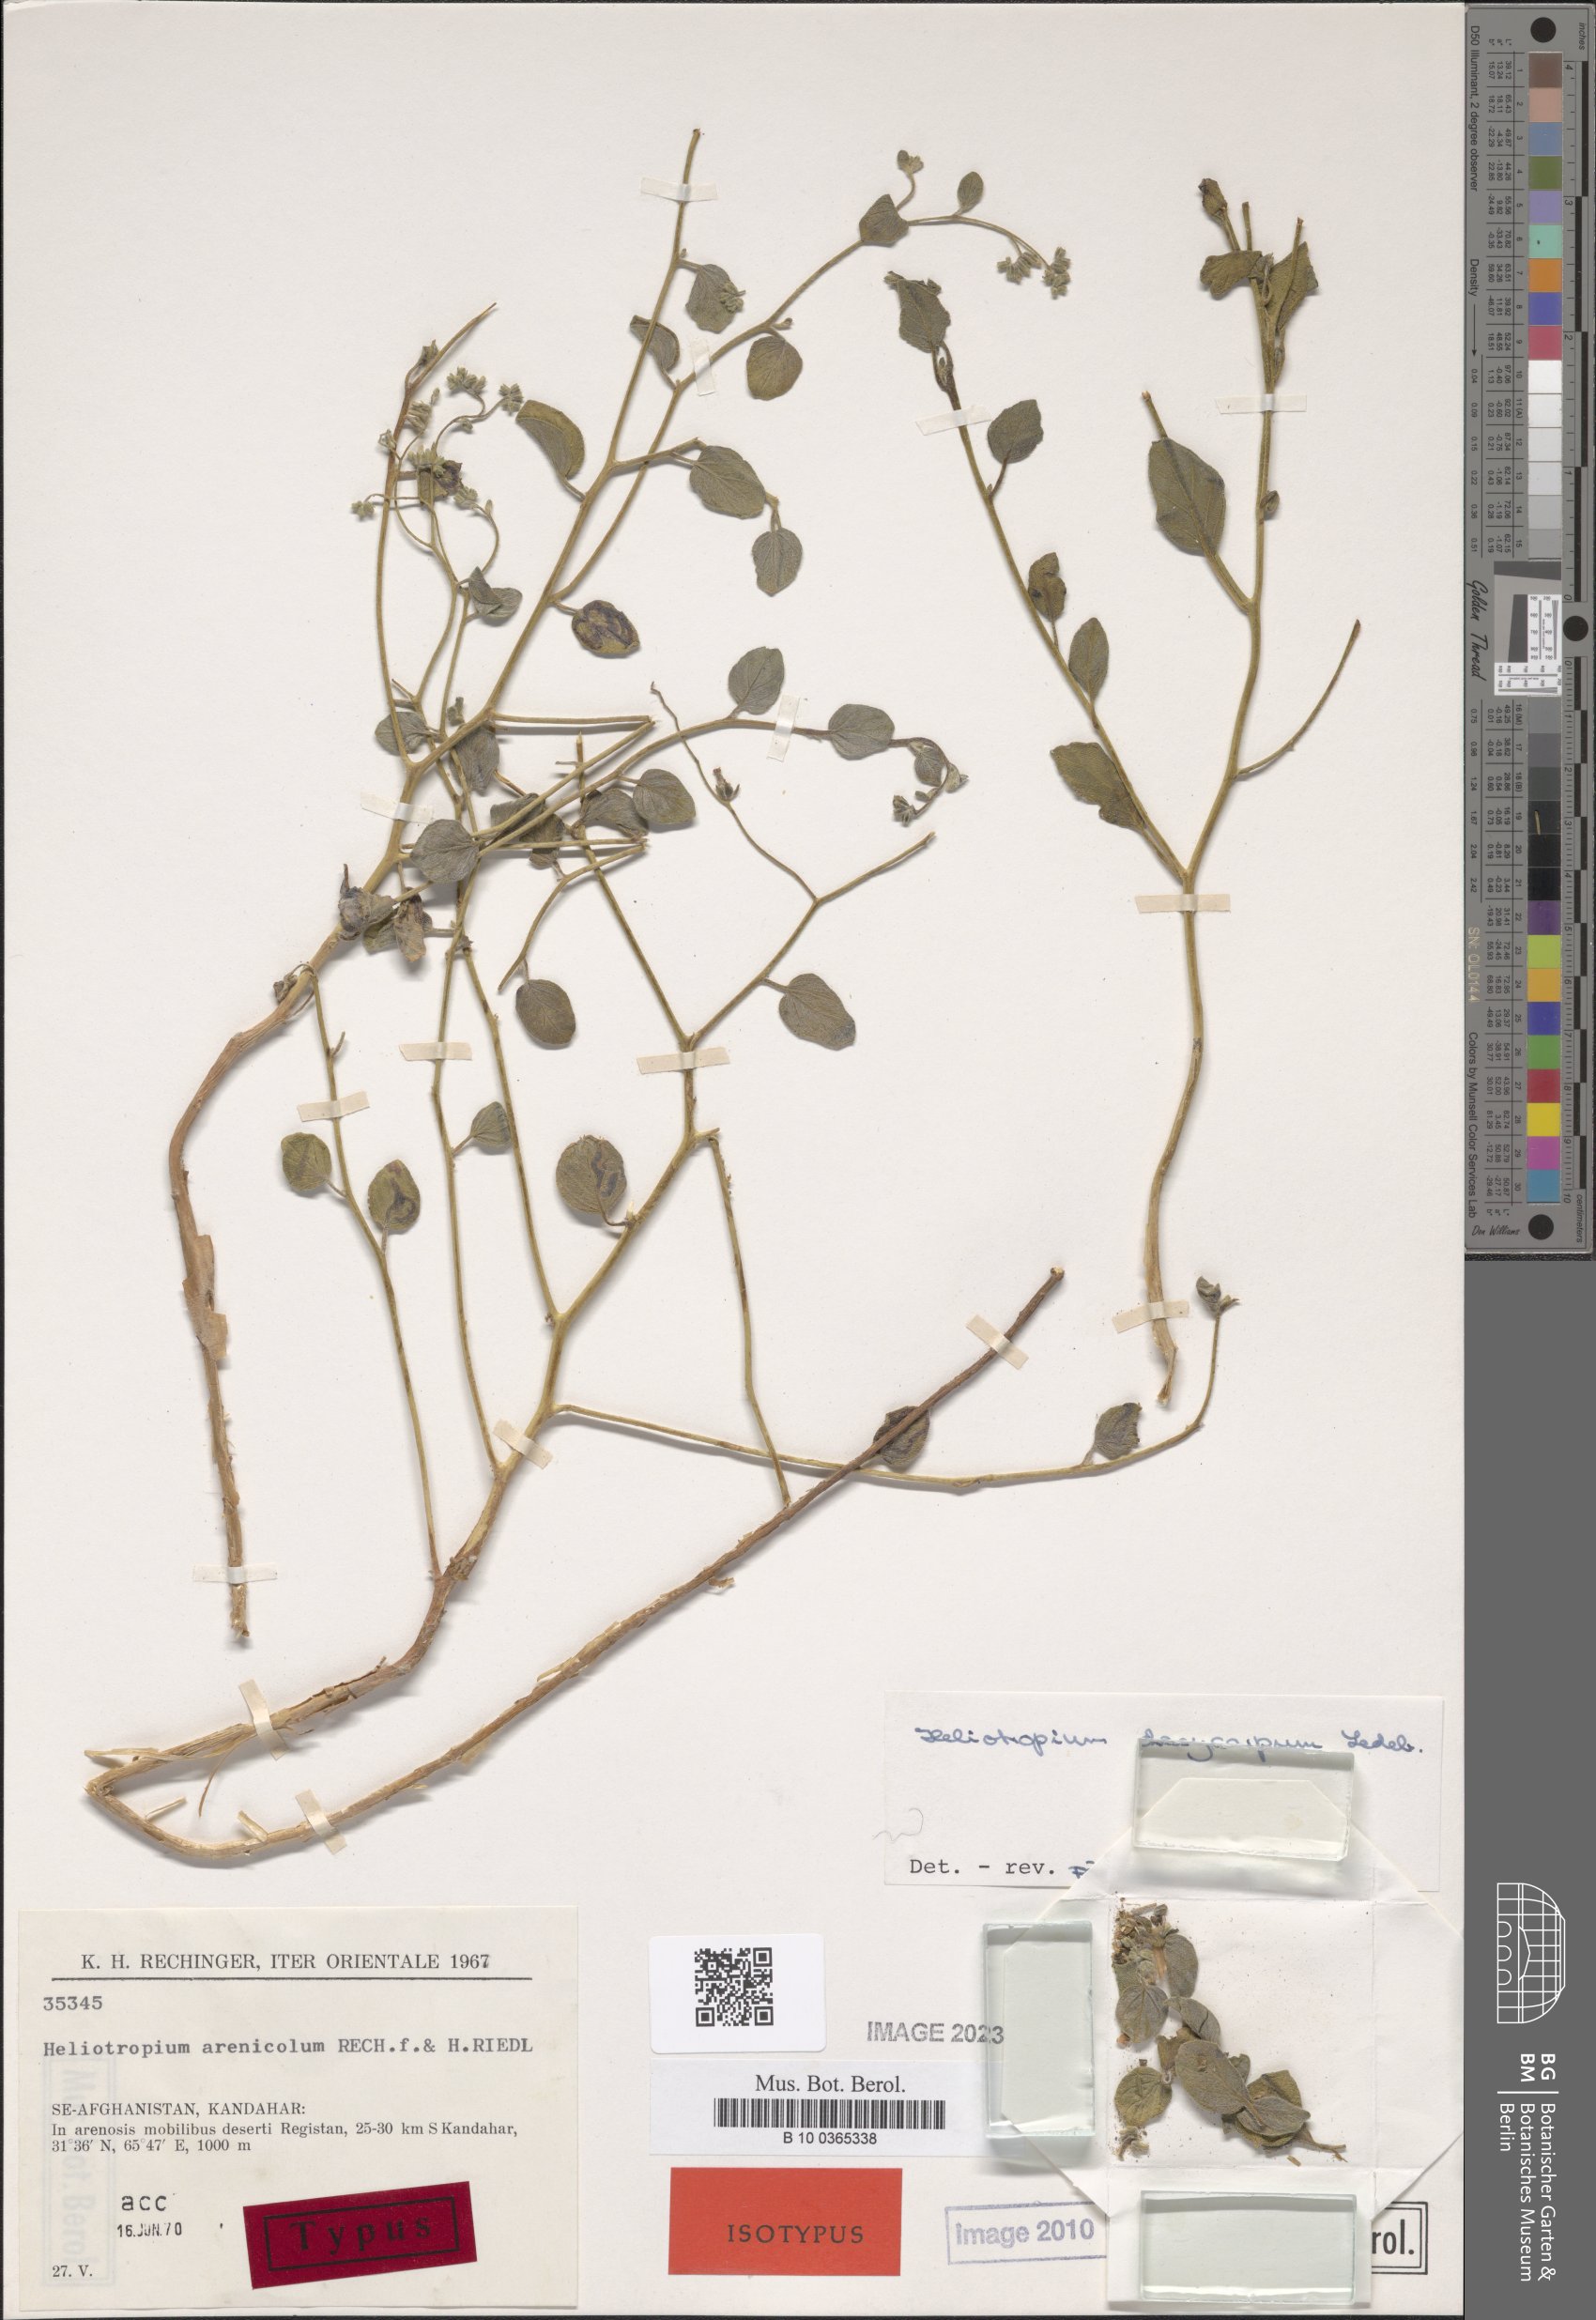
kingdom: Plantae
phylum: Tracheophyta
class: Magnoliopsida
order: Boraginales
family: Heliotropiaceae
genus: Heliotropium
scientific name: Heliotropium dasycarpum
